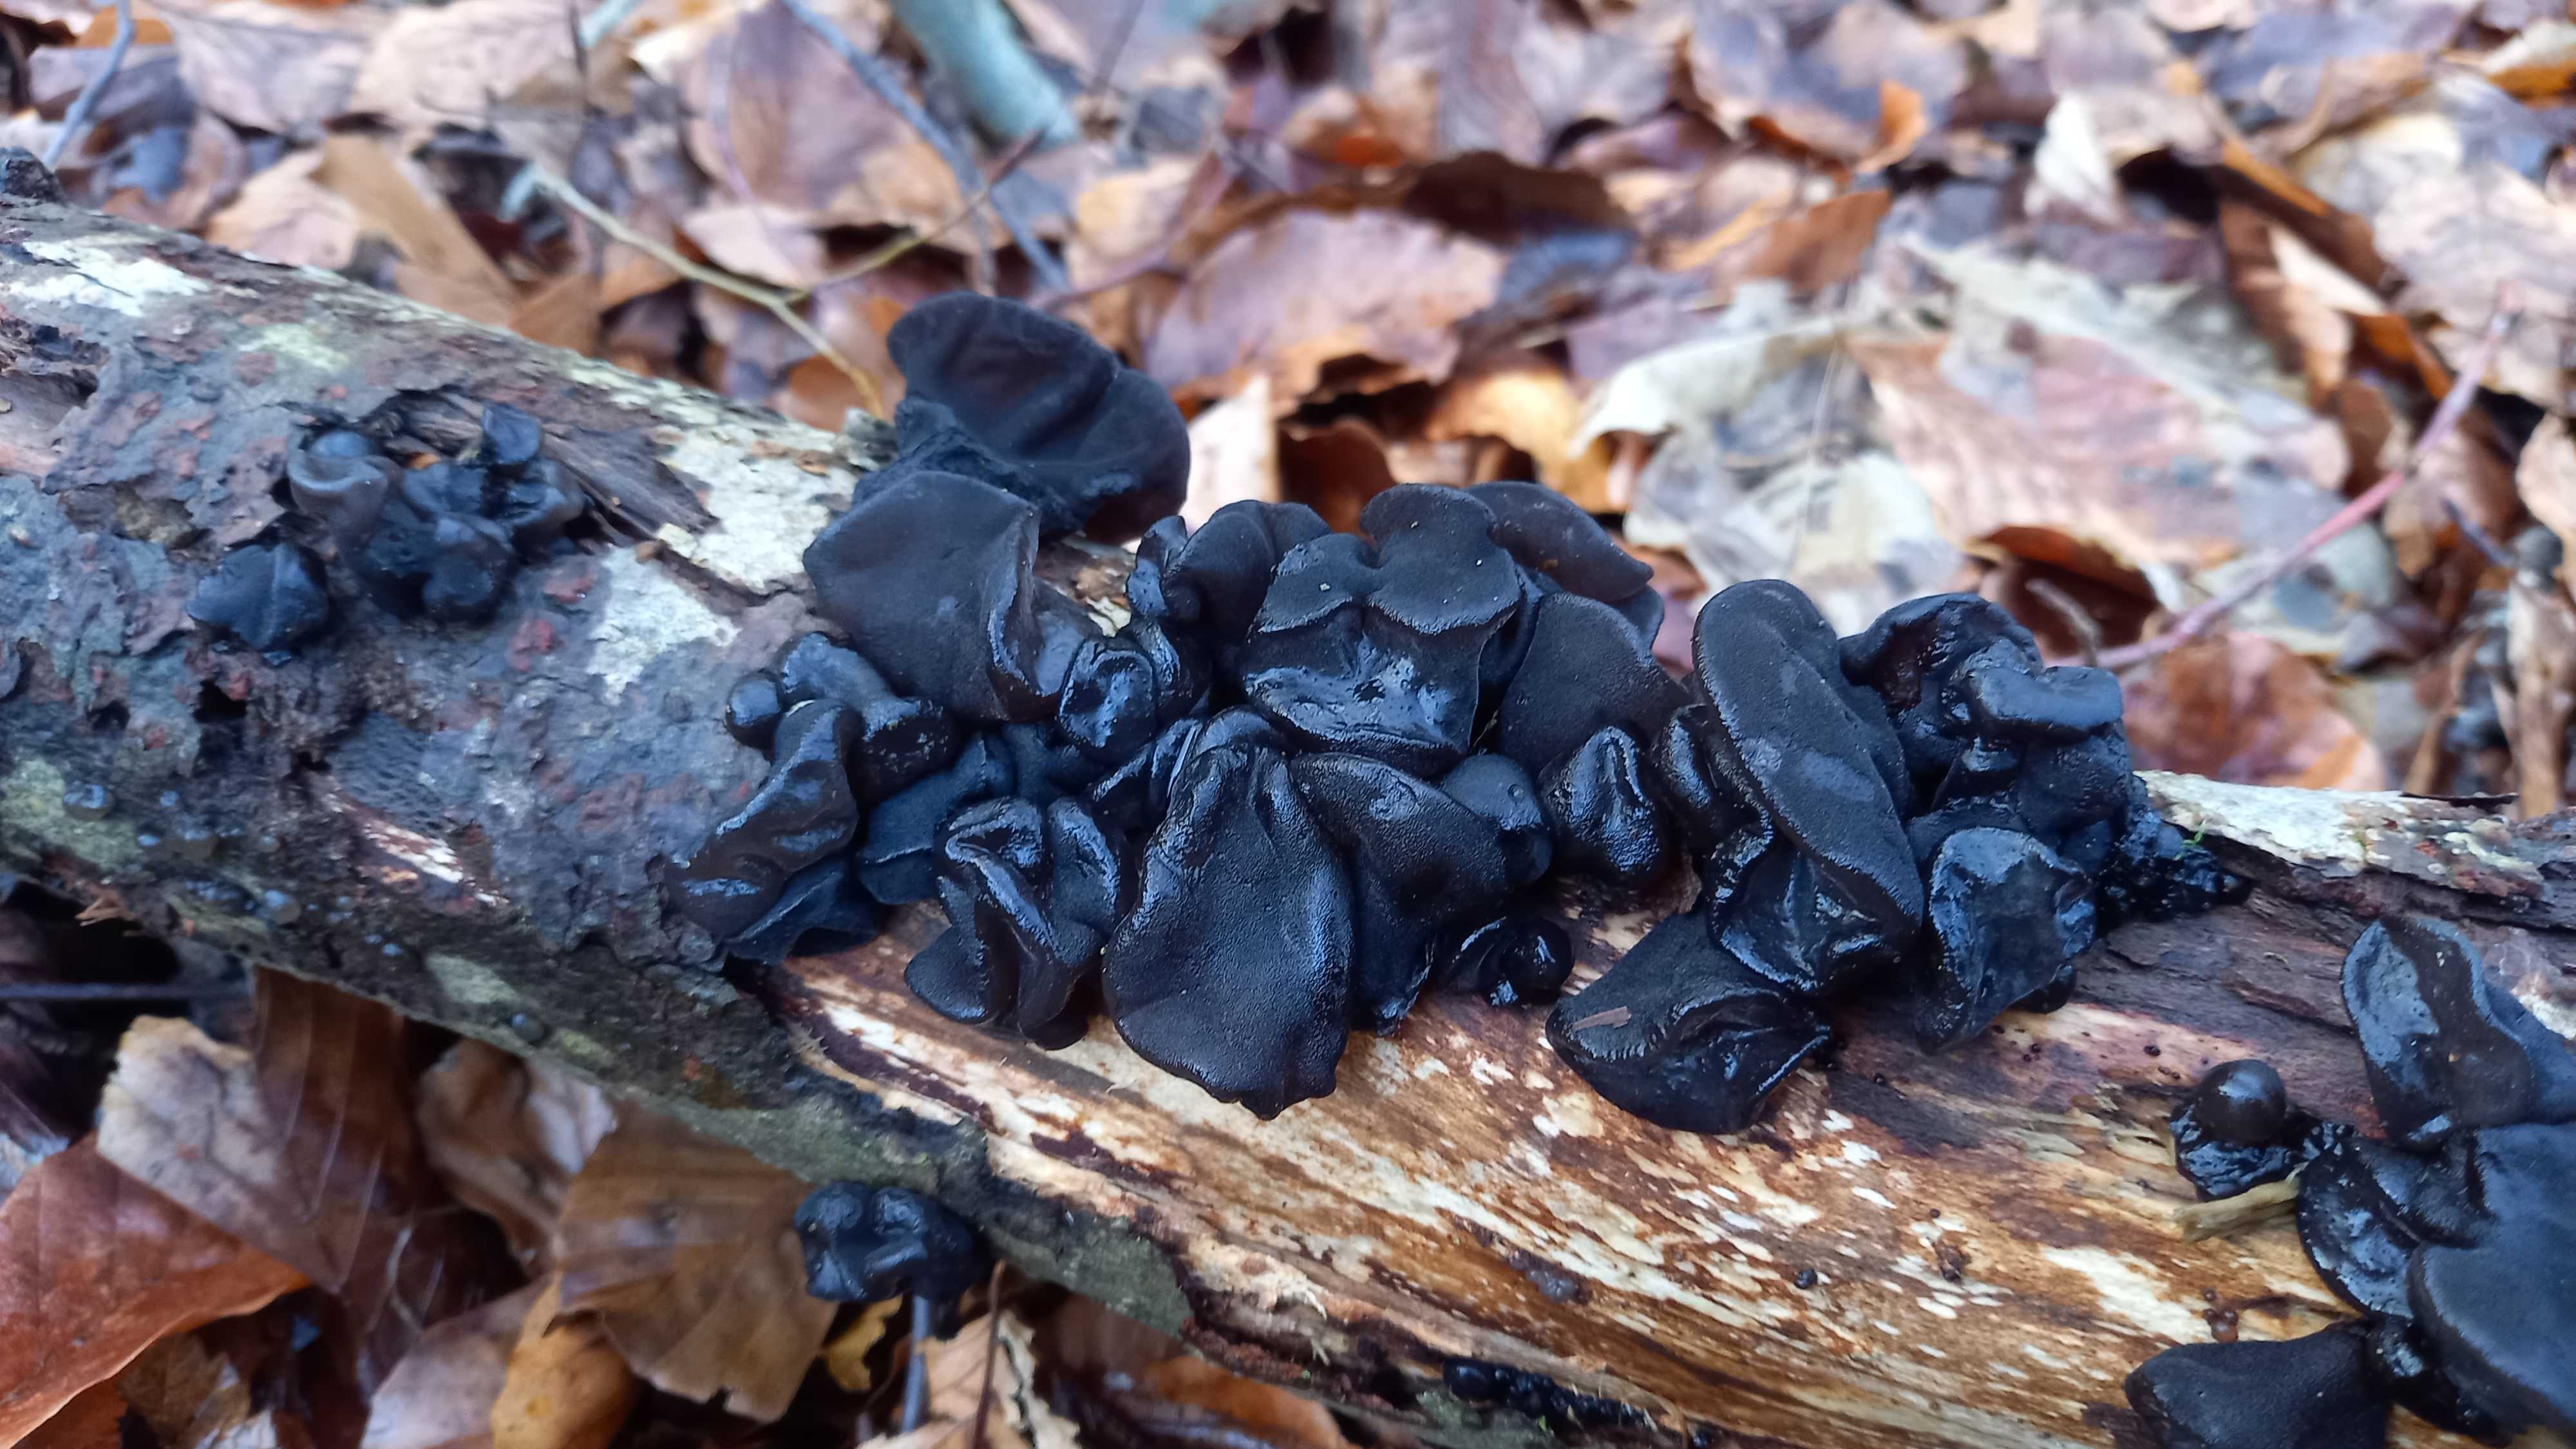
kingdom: Fungi
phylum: Basidiomycota
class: Agaricomycetes
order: Auriculariales
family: Auriculariaceae
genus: Exidia
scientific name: Exidia glandulosa
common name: ege-bævretop
